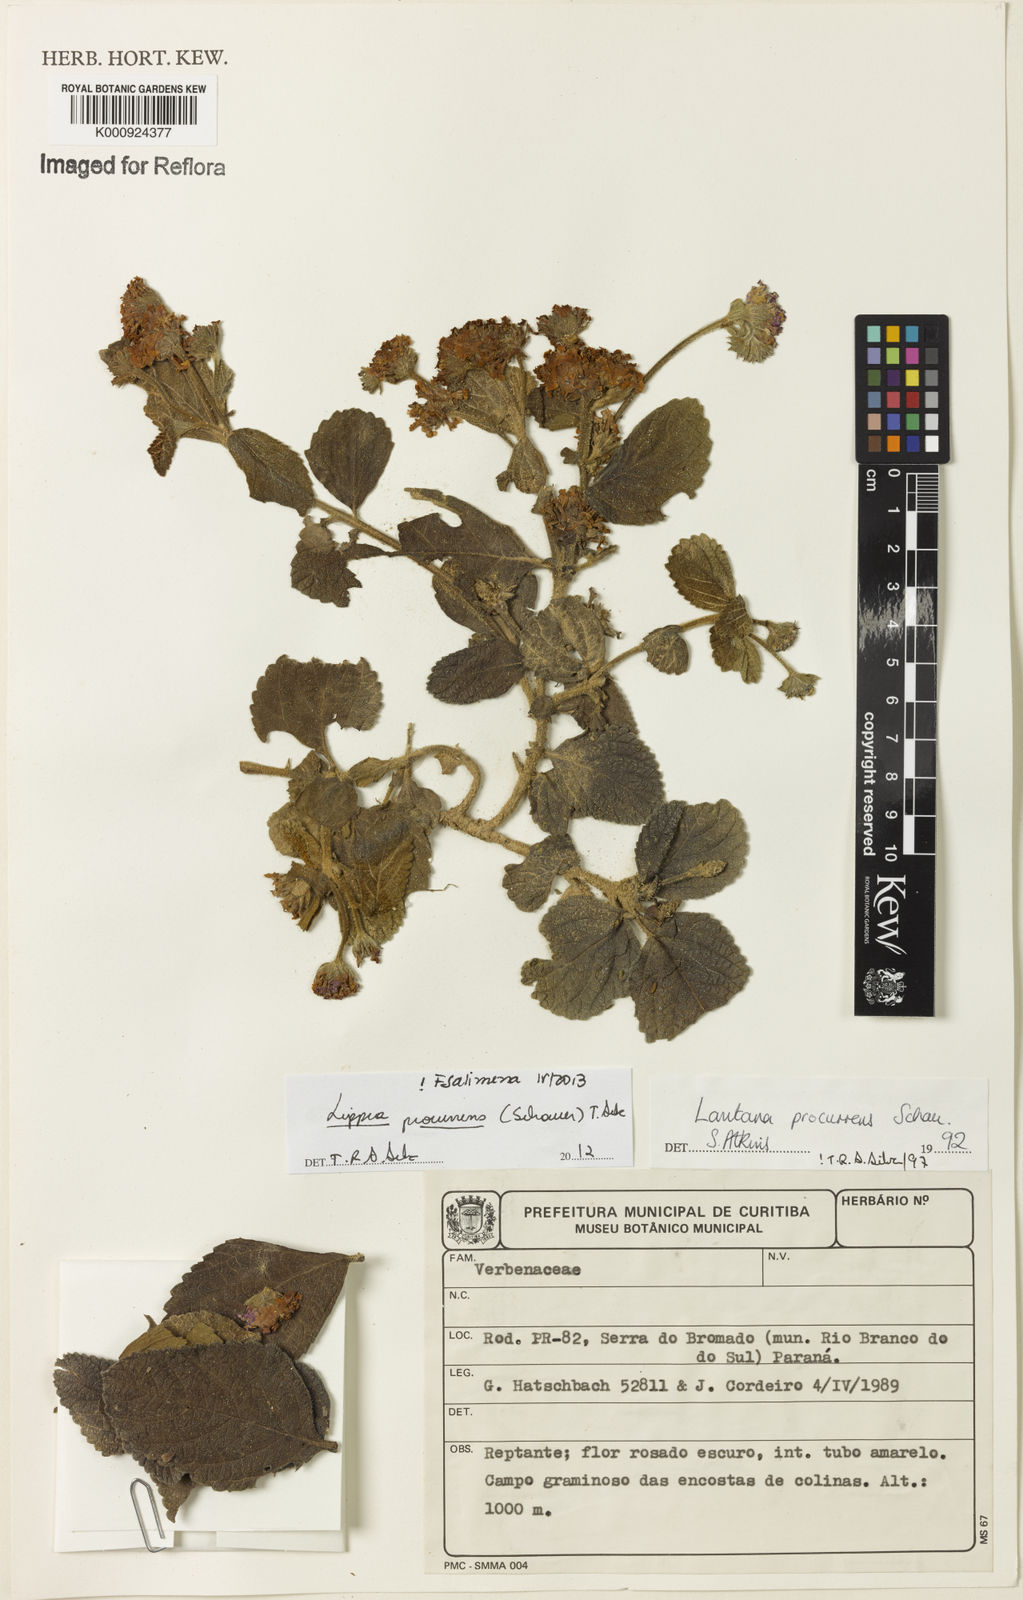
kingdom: Plantae
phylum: Tracheophyta
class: Magnoliopsida
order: Lamiales
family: Verbenaceae
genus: Lippia
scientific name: Lippia procurrens
